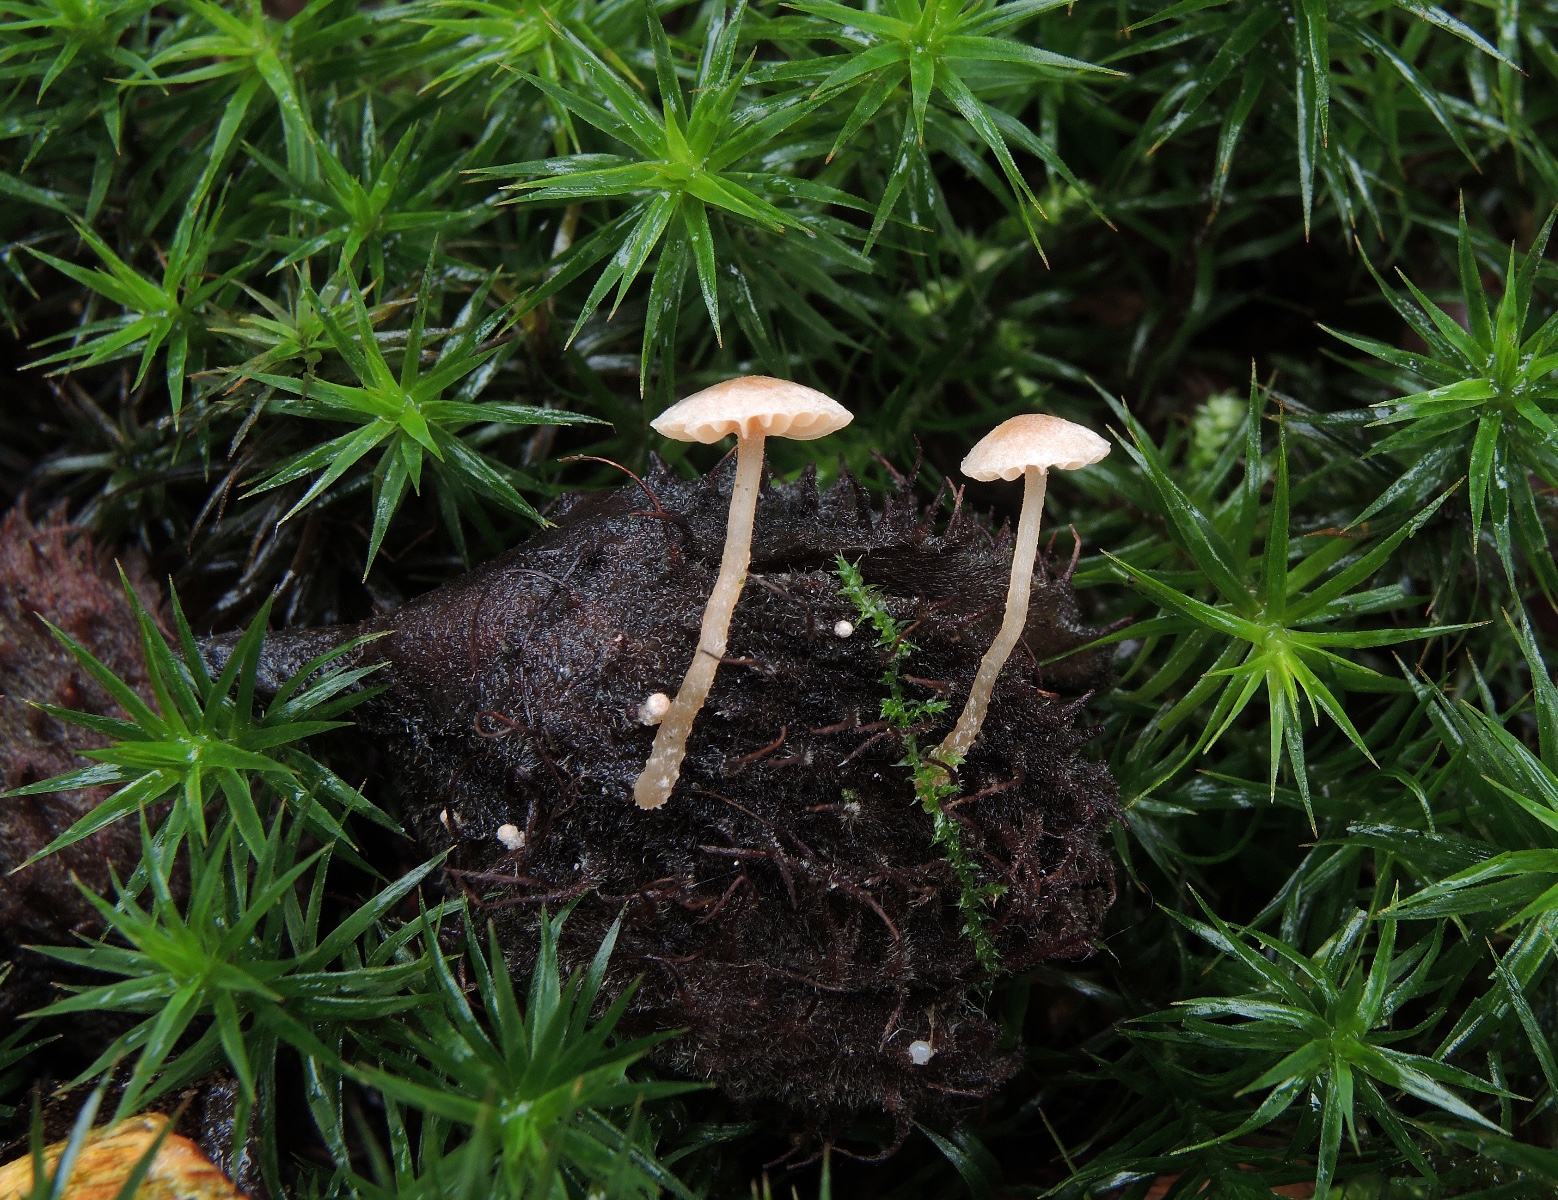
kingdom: Fungi
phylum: Basidiomycota
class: Agaricomycetes
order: Agaricales
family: Tubariaceae
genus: Flammulaster
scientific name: Flammulaster carpophilus
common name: blegrosa grynskælhat
